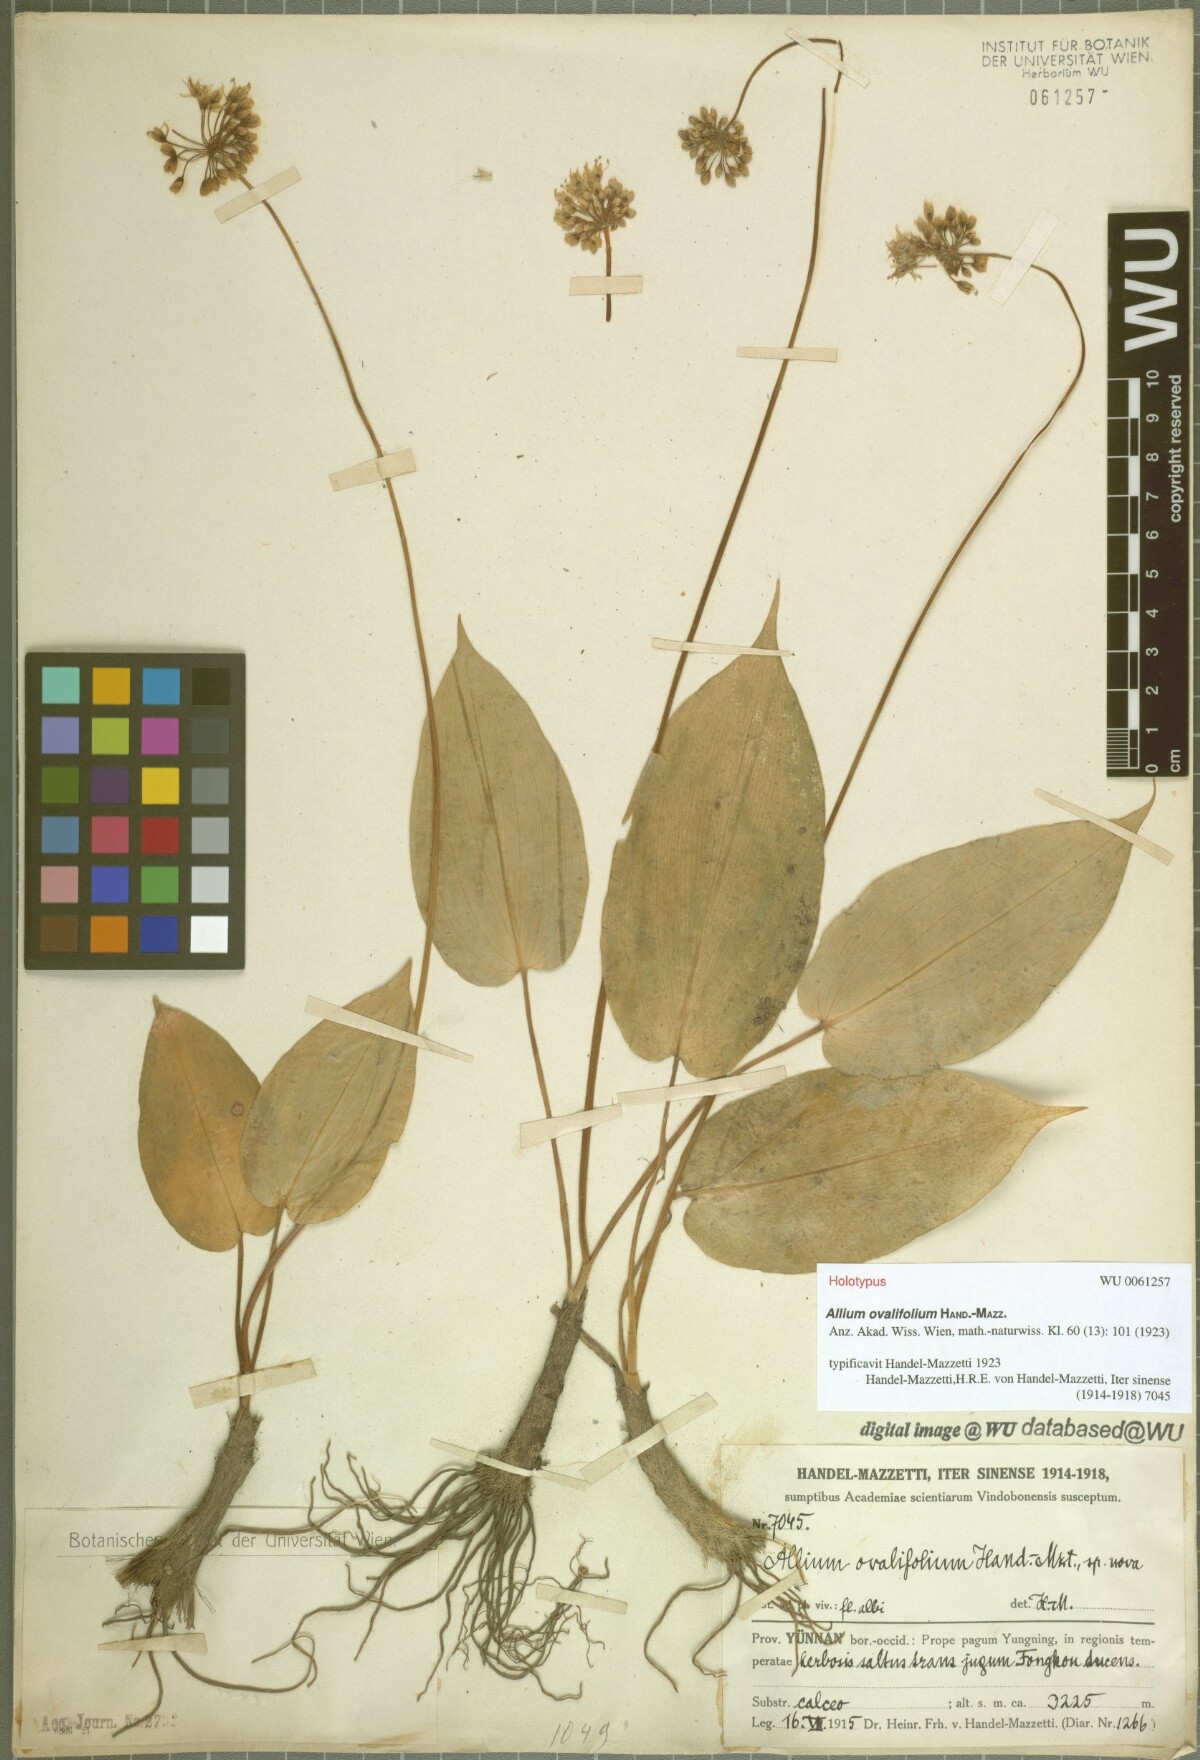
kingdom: Plantae
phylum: Tracheophyta
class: Liliopsida
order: Asparagales
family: Amaryllidaceae
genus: Allium
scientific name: Allium ovalifolium
